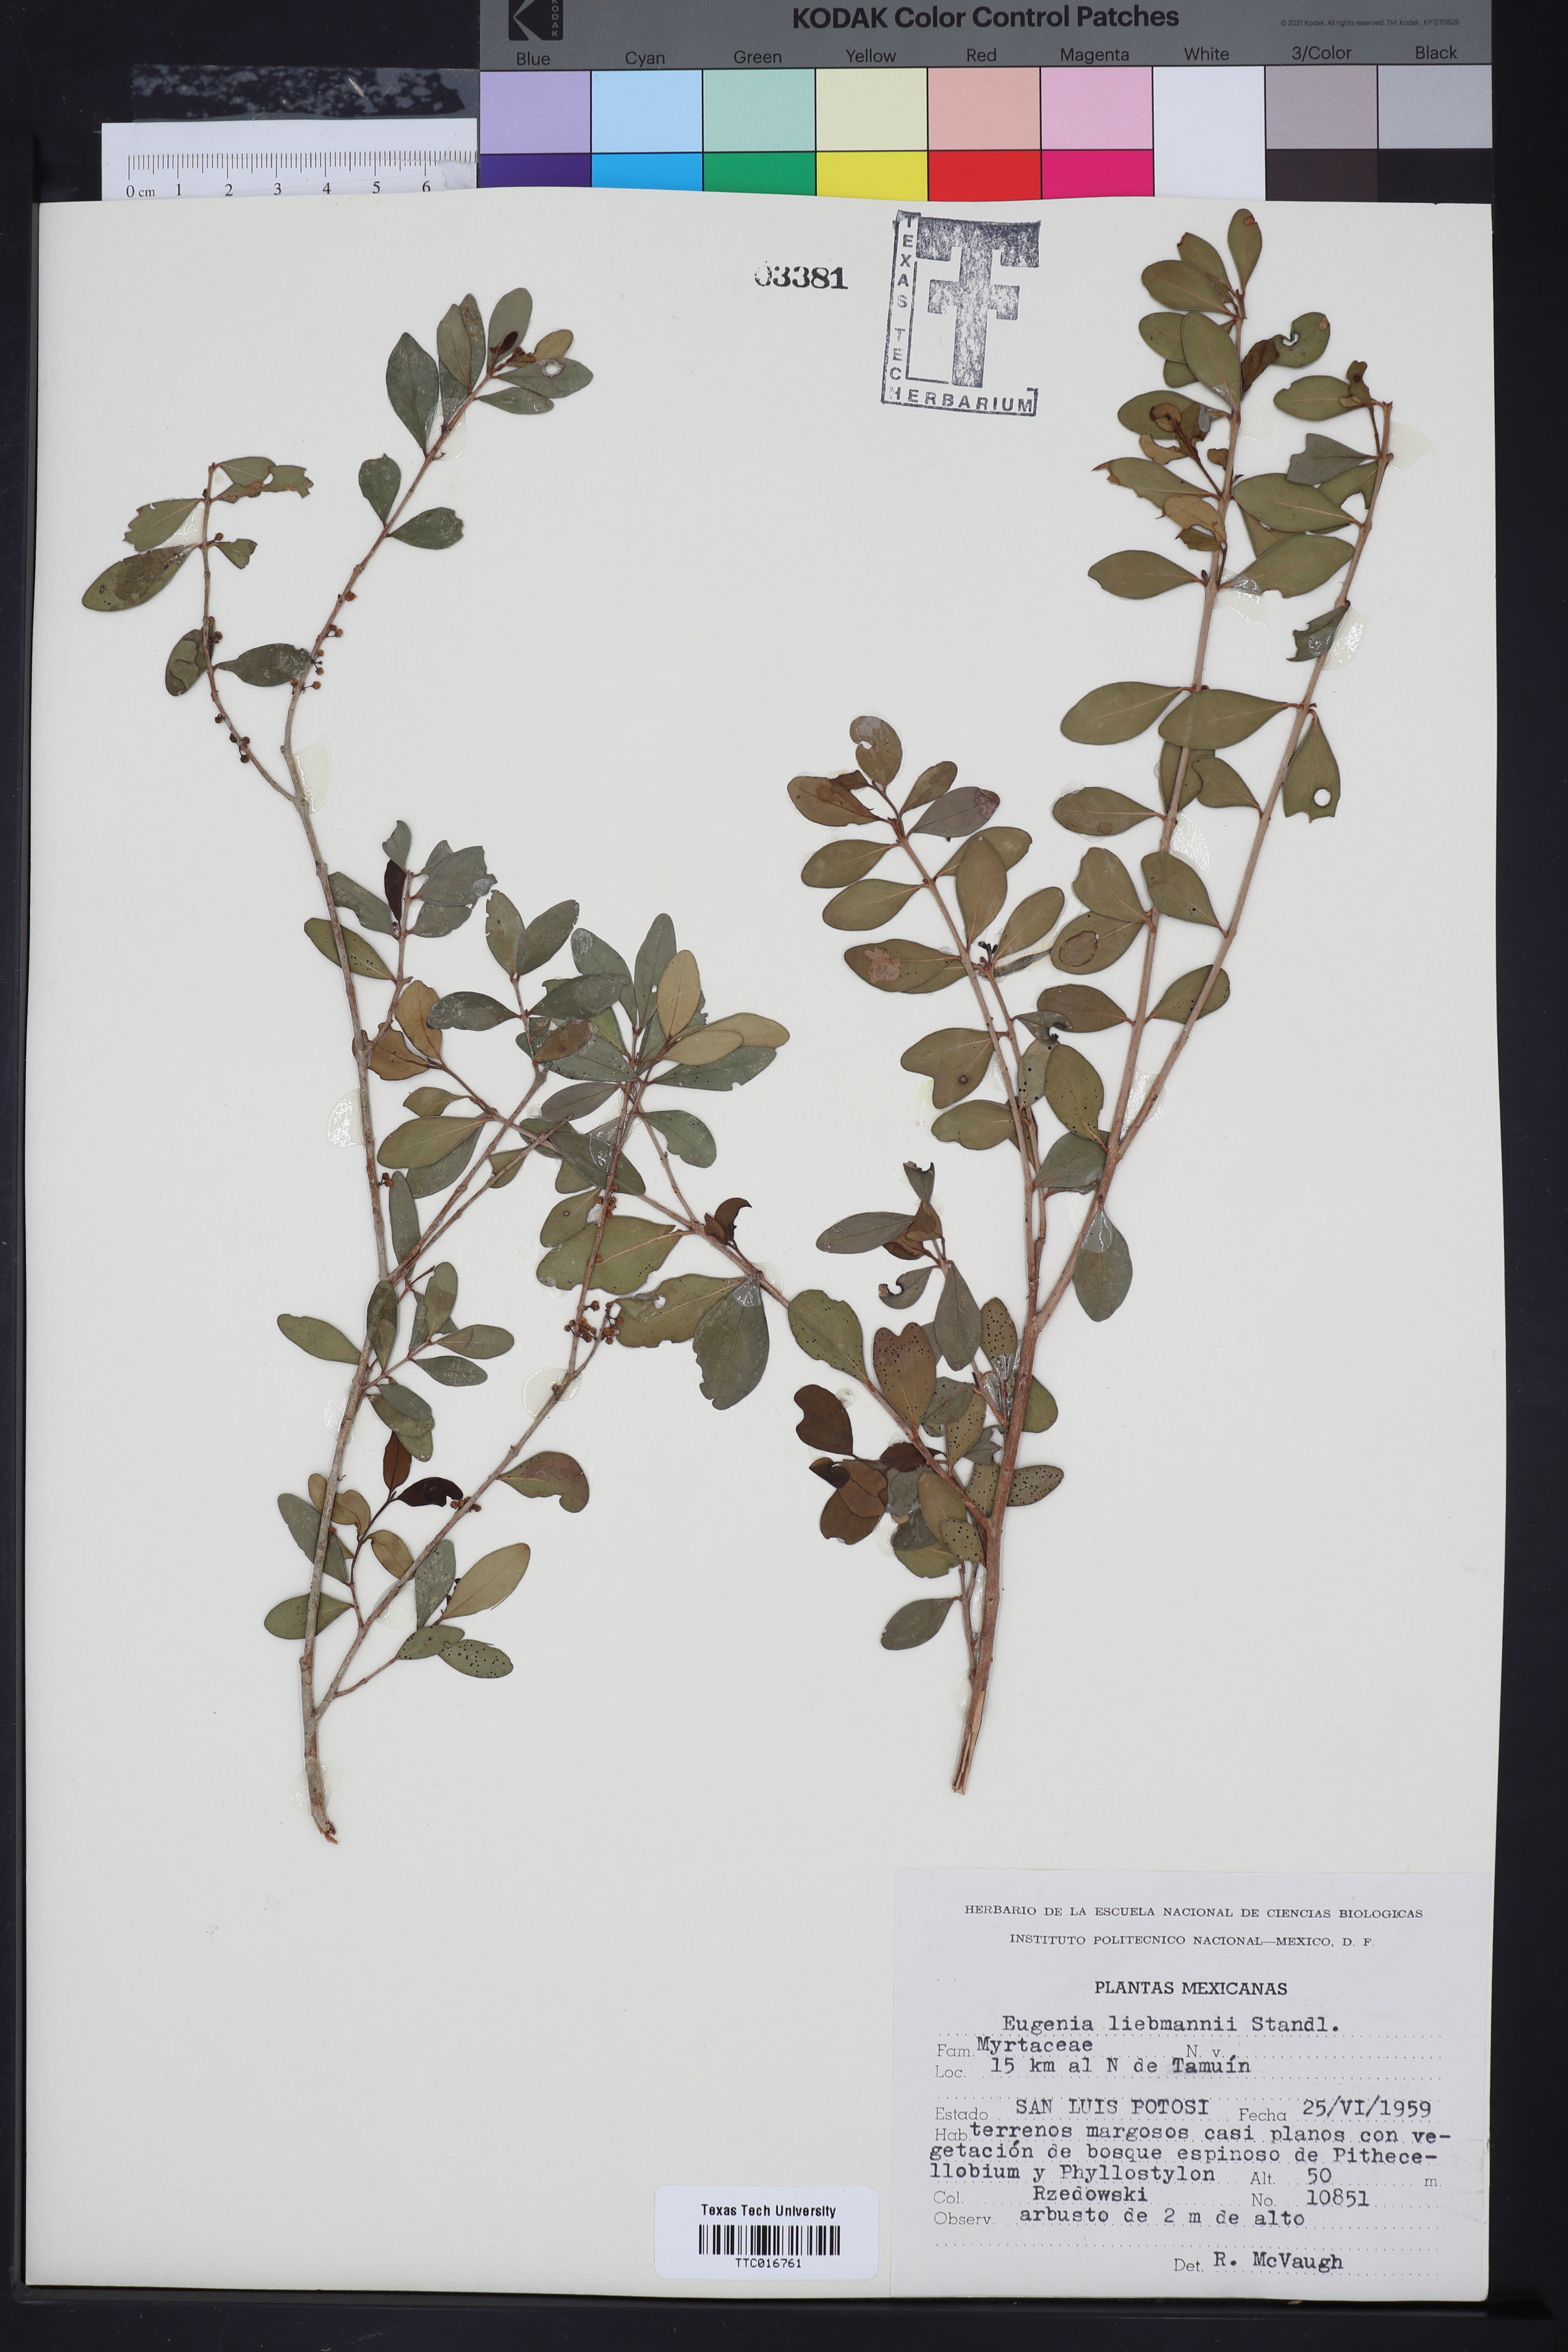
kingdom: Plantae
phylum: Tracheophyta
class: Magnoliopsida
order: Myrtales
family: Myrtaceae
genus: Eugenia
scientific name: Eugenia liebmannii
